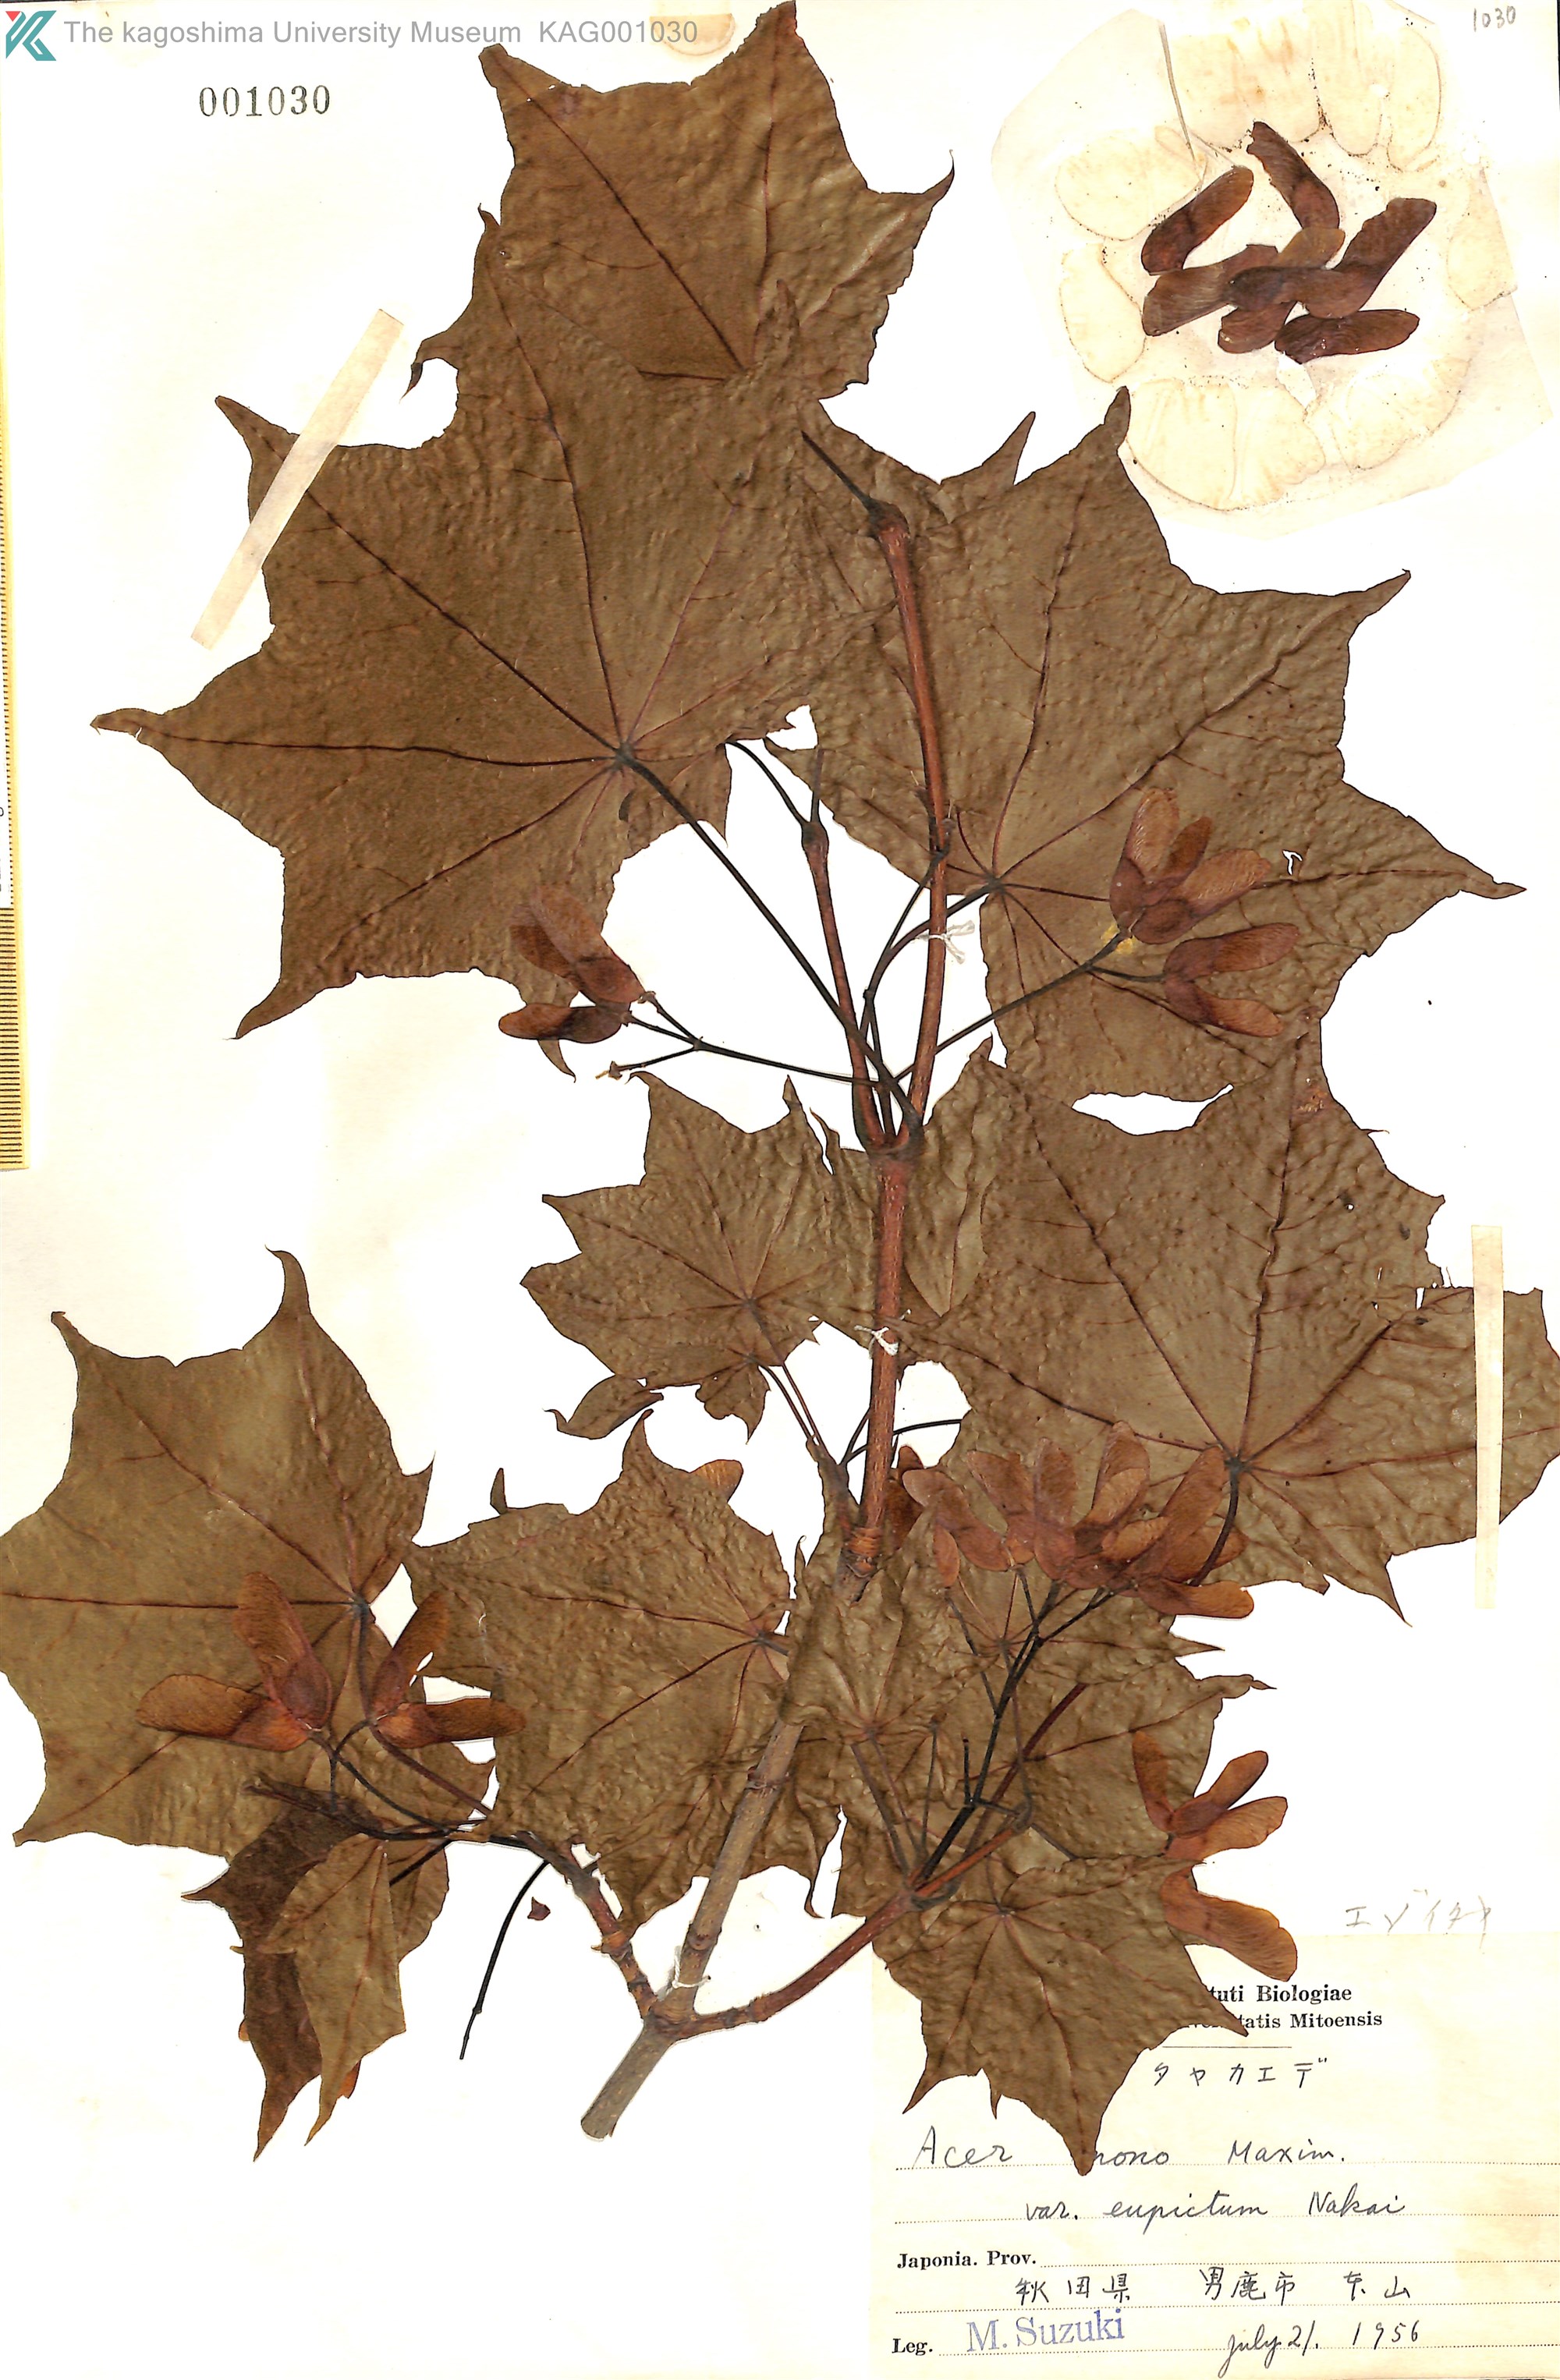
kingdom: Plantae
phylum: Tracheophyta
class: Magnoliopsida
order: Sapindales
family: Sapindaceae
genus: Acer
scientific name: Acer pictum
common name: The painted maple
